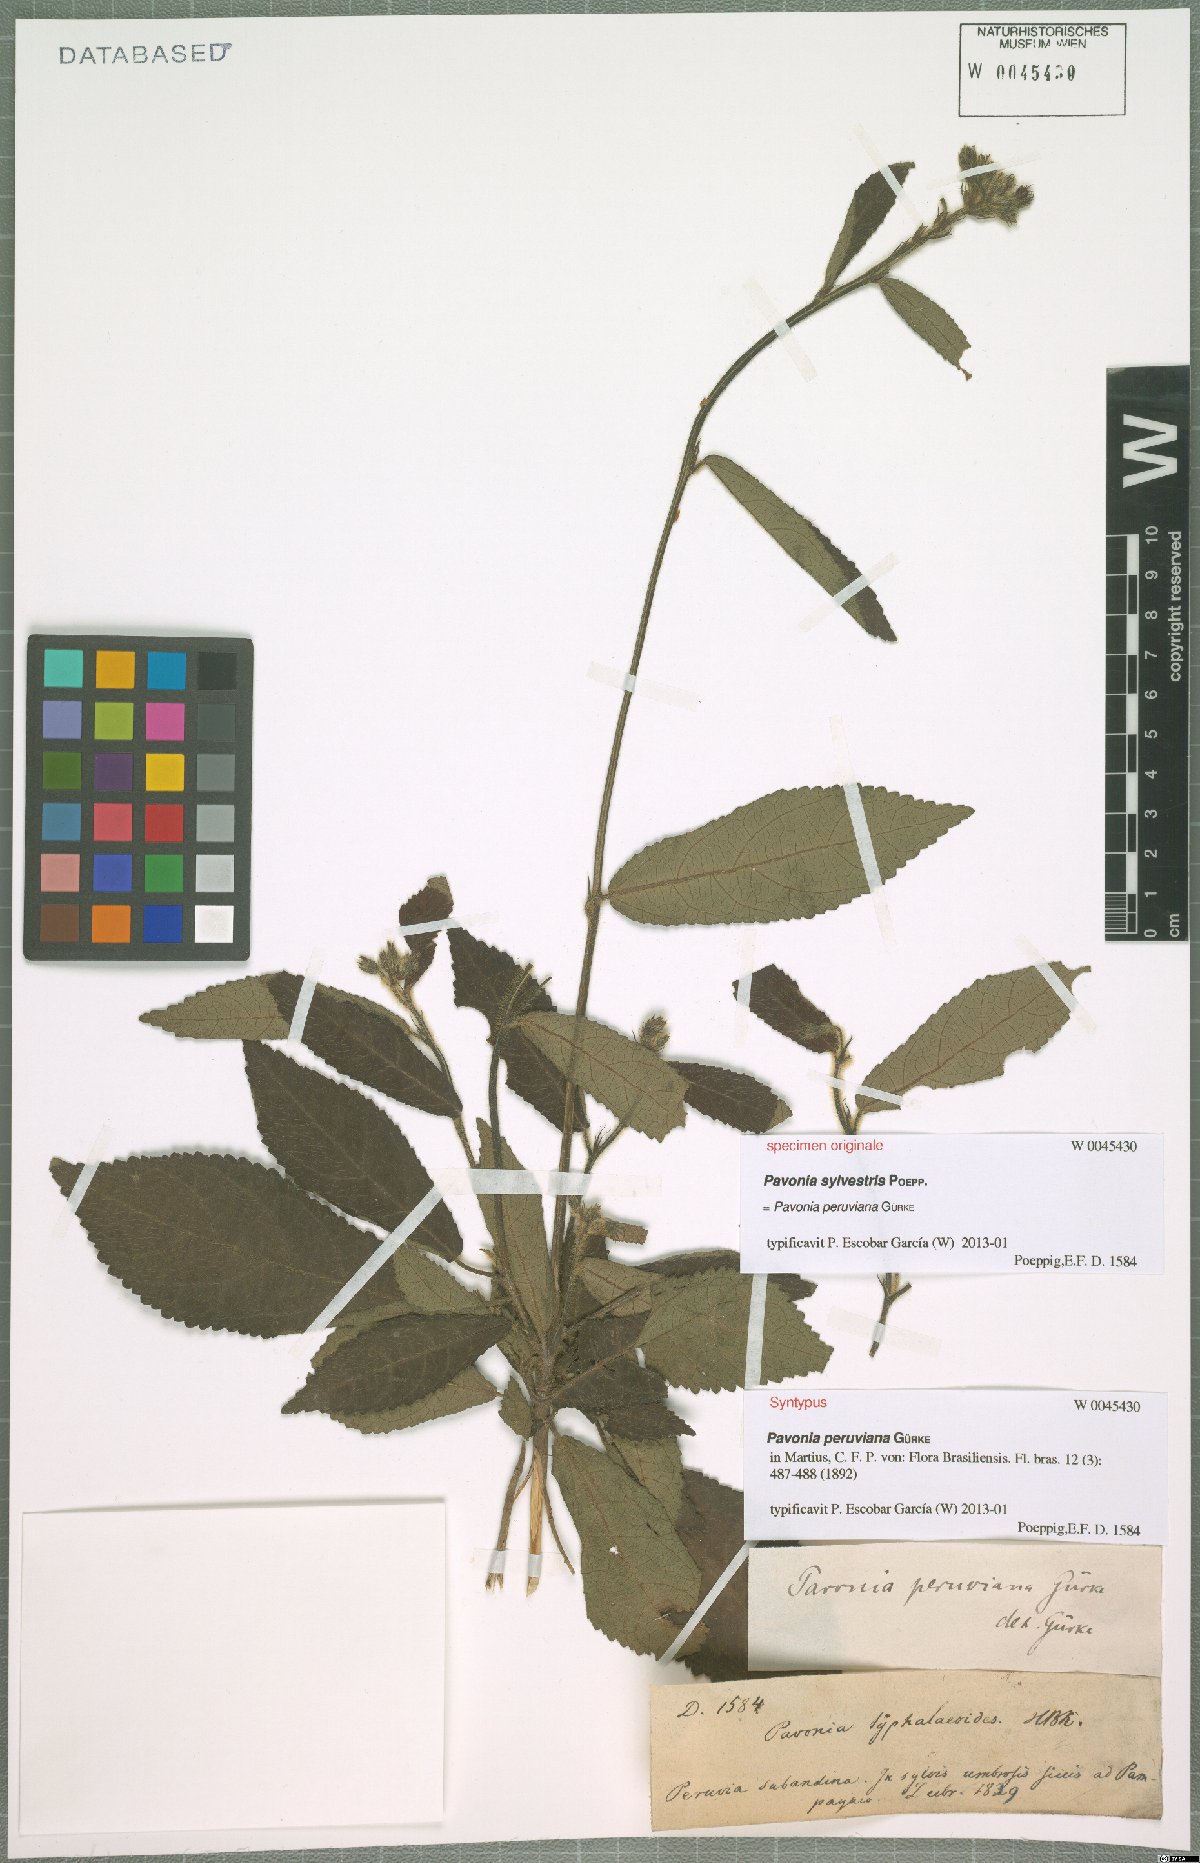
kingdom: Plantae
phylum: Tracheophyta
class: Magnoliopsida
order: Malvales
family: Malvaceae
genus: Pavonia
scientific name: Pavonia peruviana
